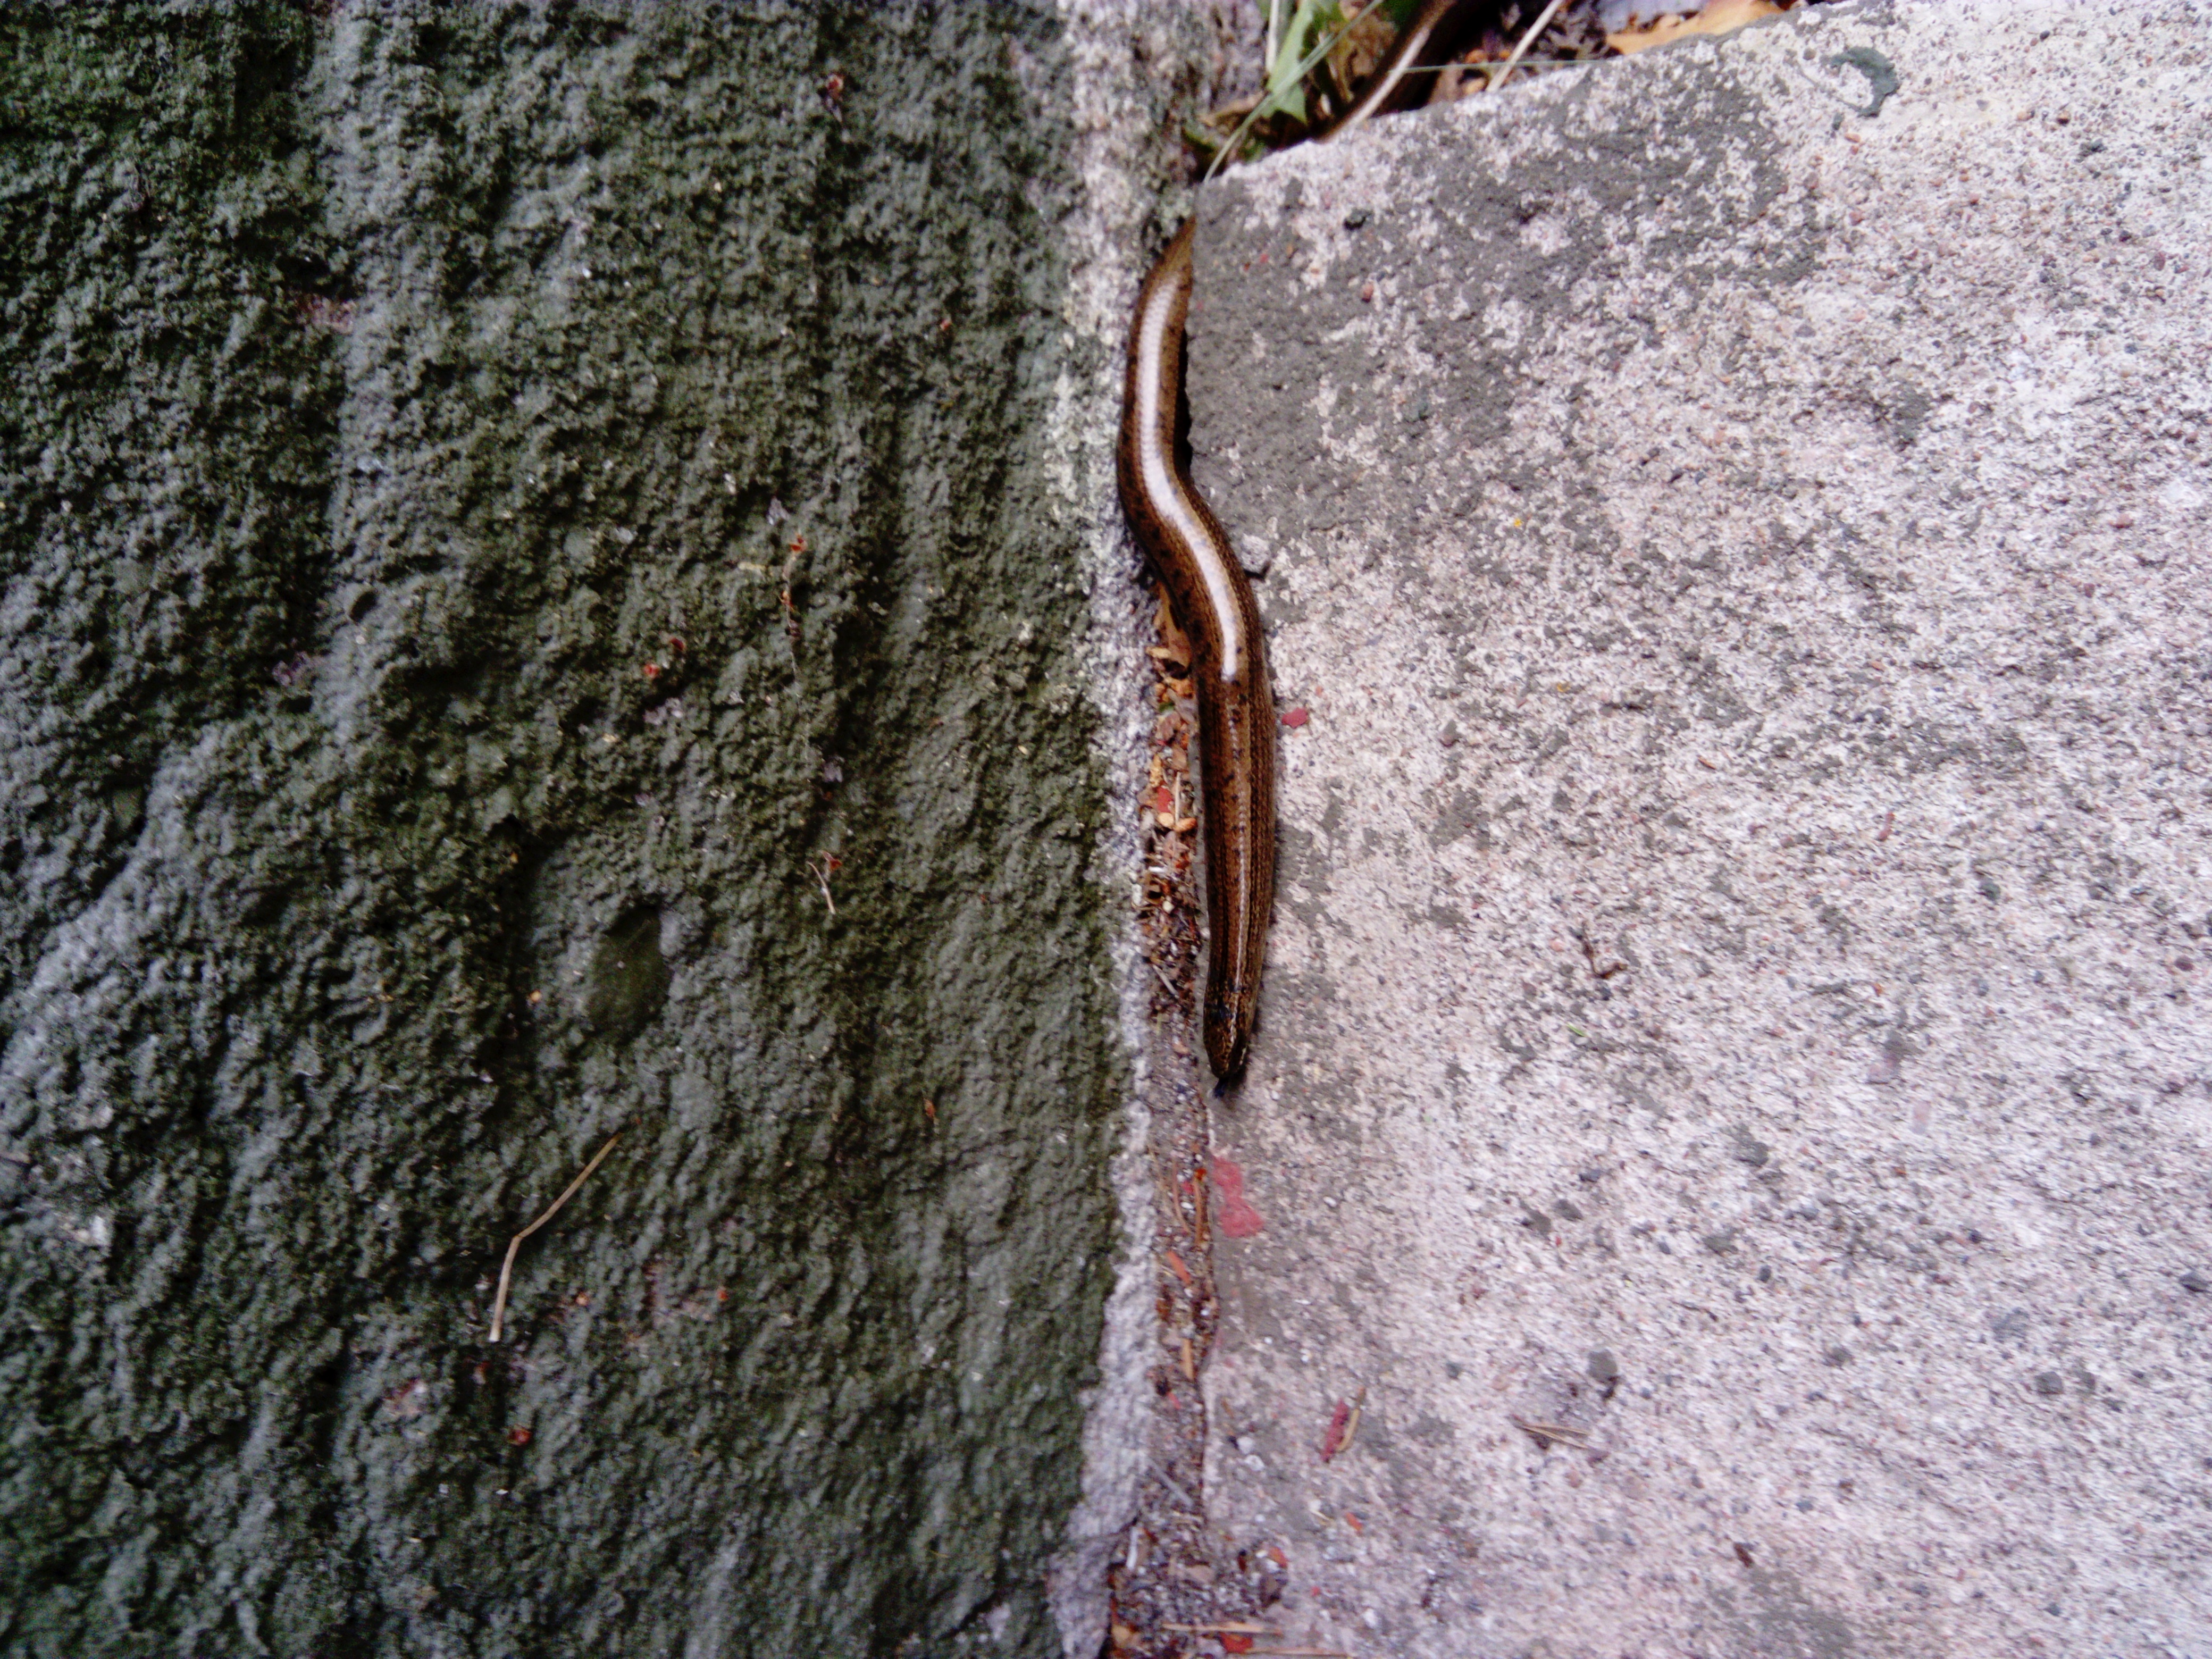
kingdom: Animalia
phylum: Chordata
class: Squamata
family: Anguidae
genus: Anguis
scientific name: Anguis colchica
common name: Slow worm
